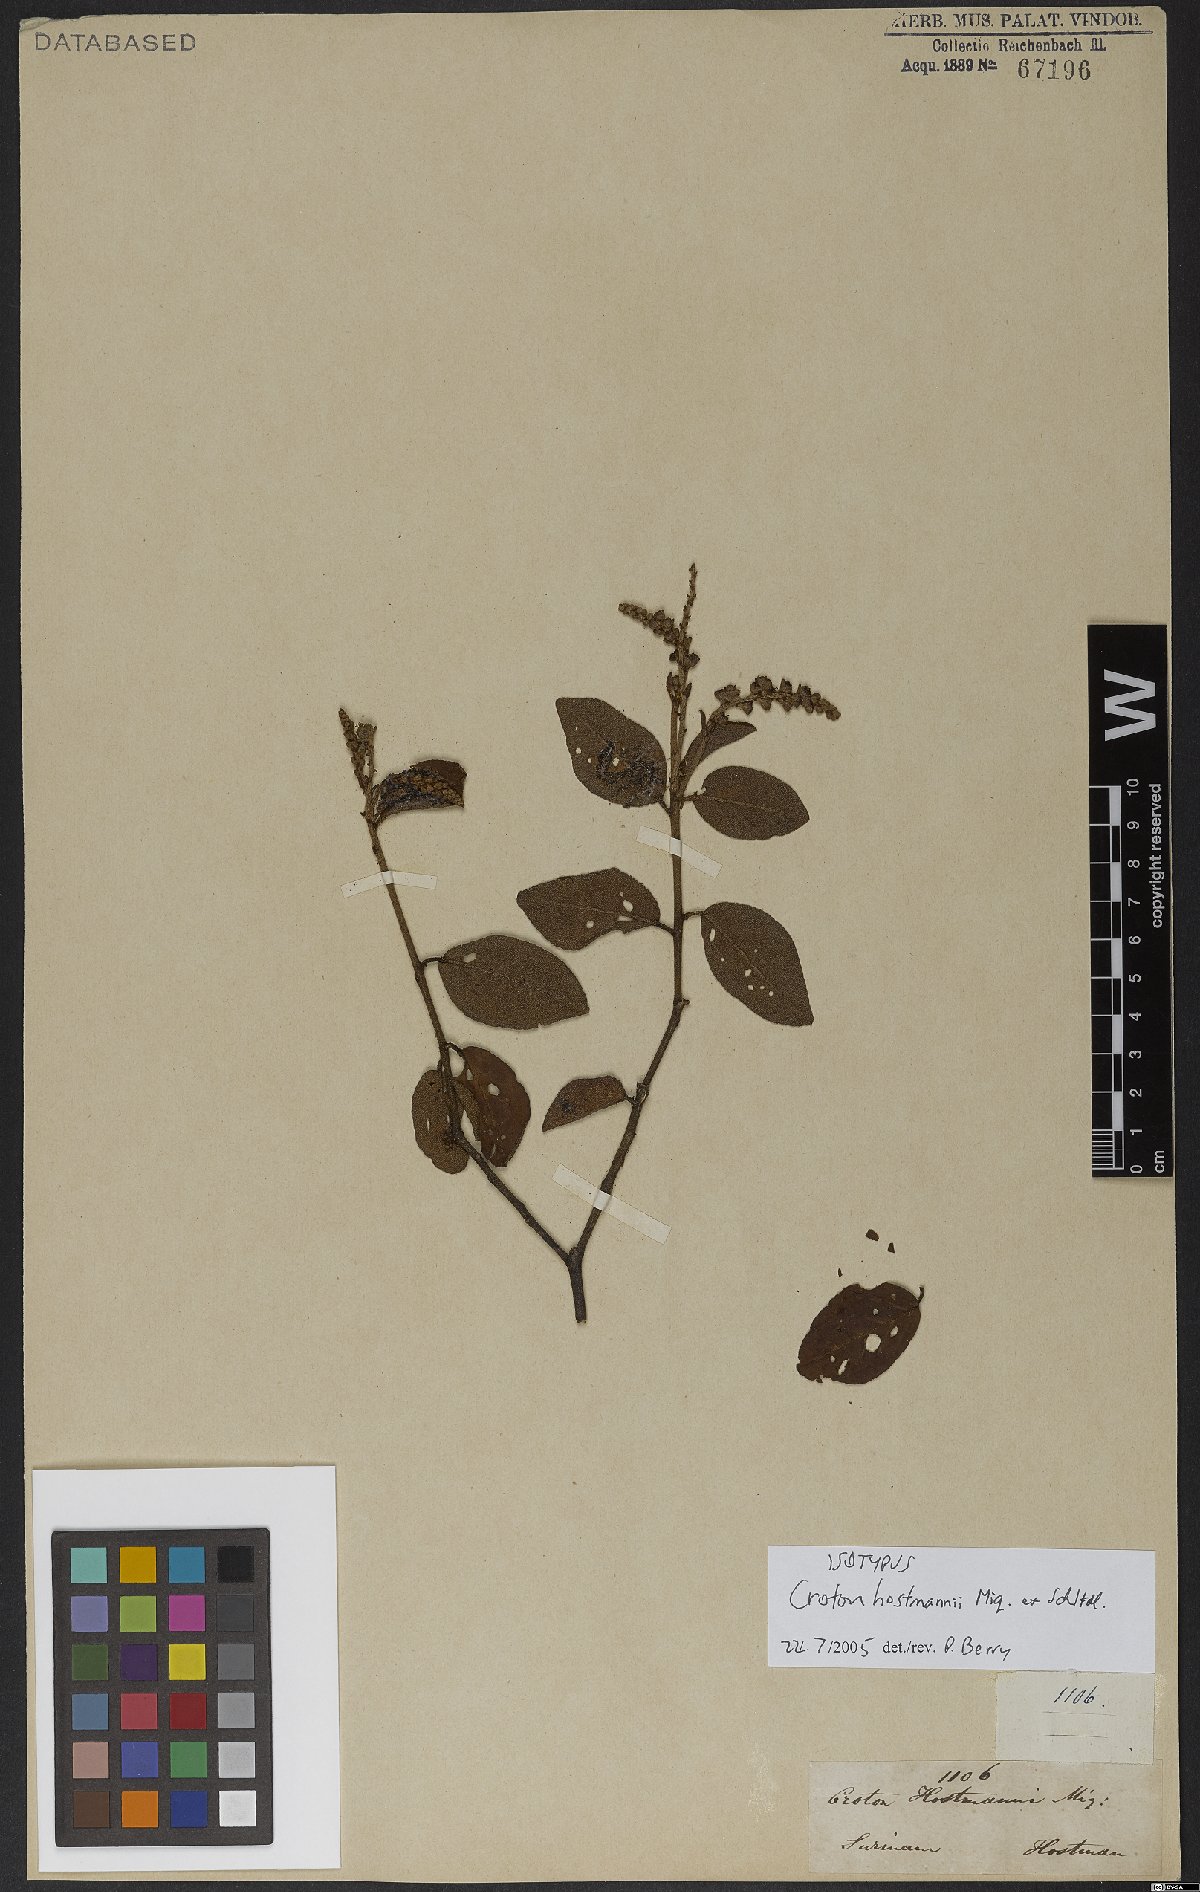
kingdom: Plantae
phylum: Tracheophyta
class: Magnoliopsida
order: Malpighiales
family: Euphorbiaceae
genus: Croton
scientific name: Croton hostmannii
